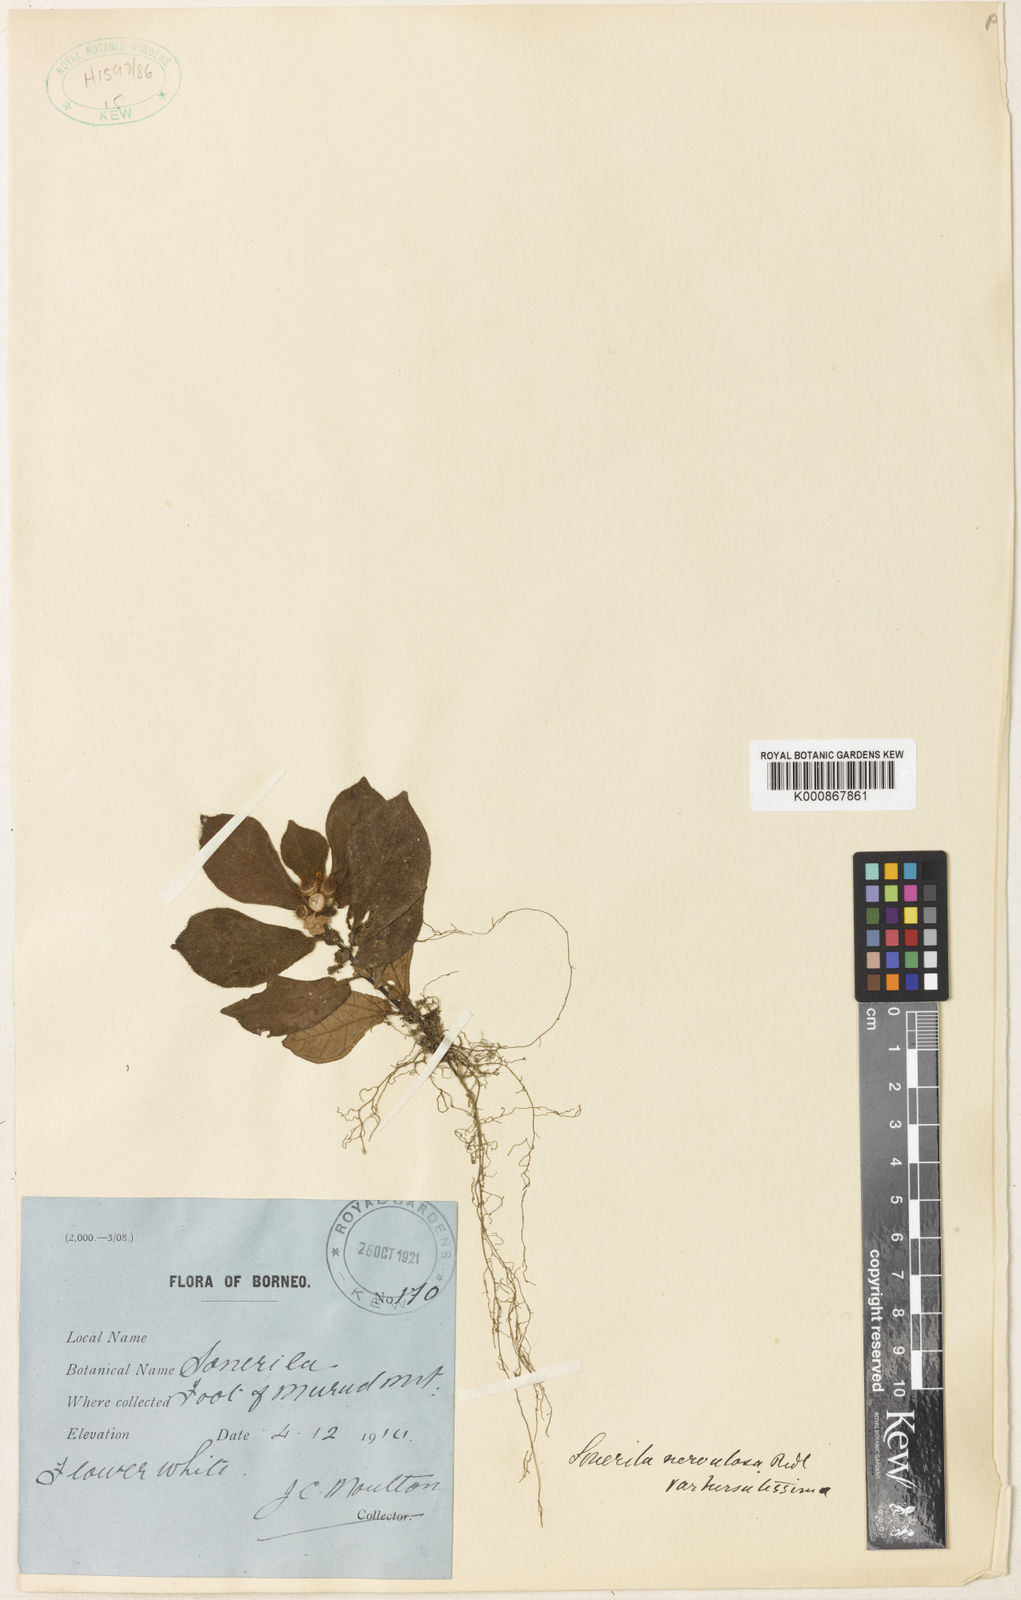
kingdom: Plantae
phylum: Tracheophyta
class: Magnoliopsida
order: Myrtales
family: Melastomataceae
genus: Sonerila
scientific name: Sonerila nervulosa
